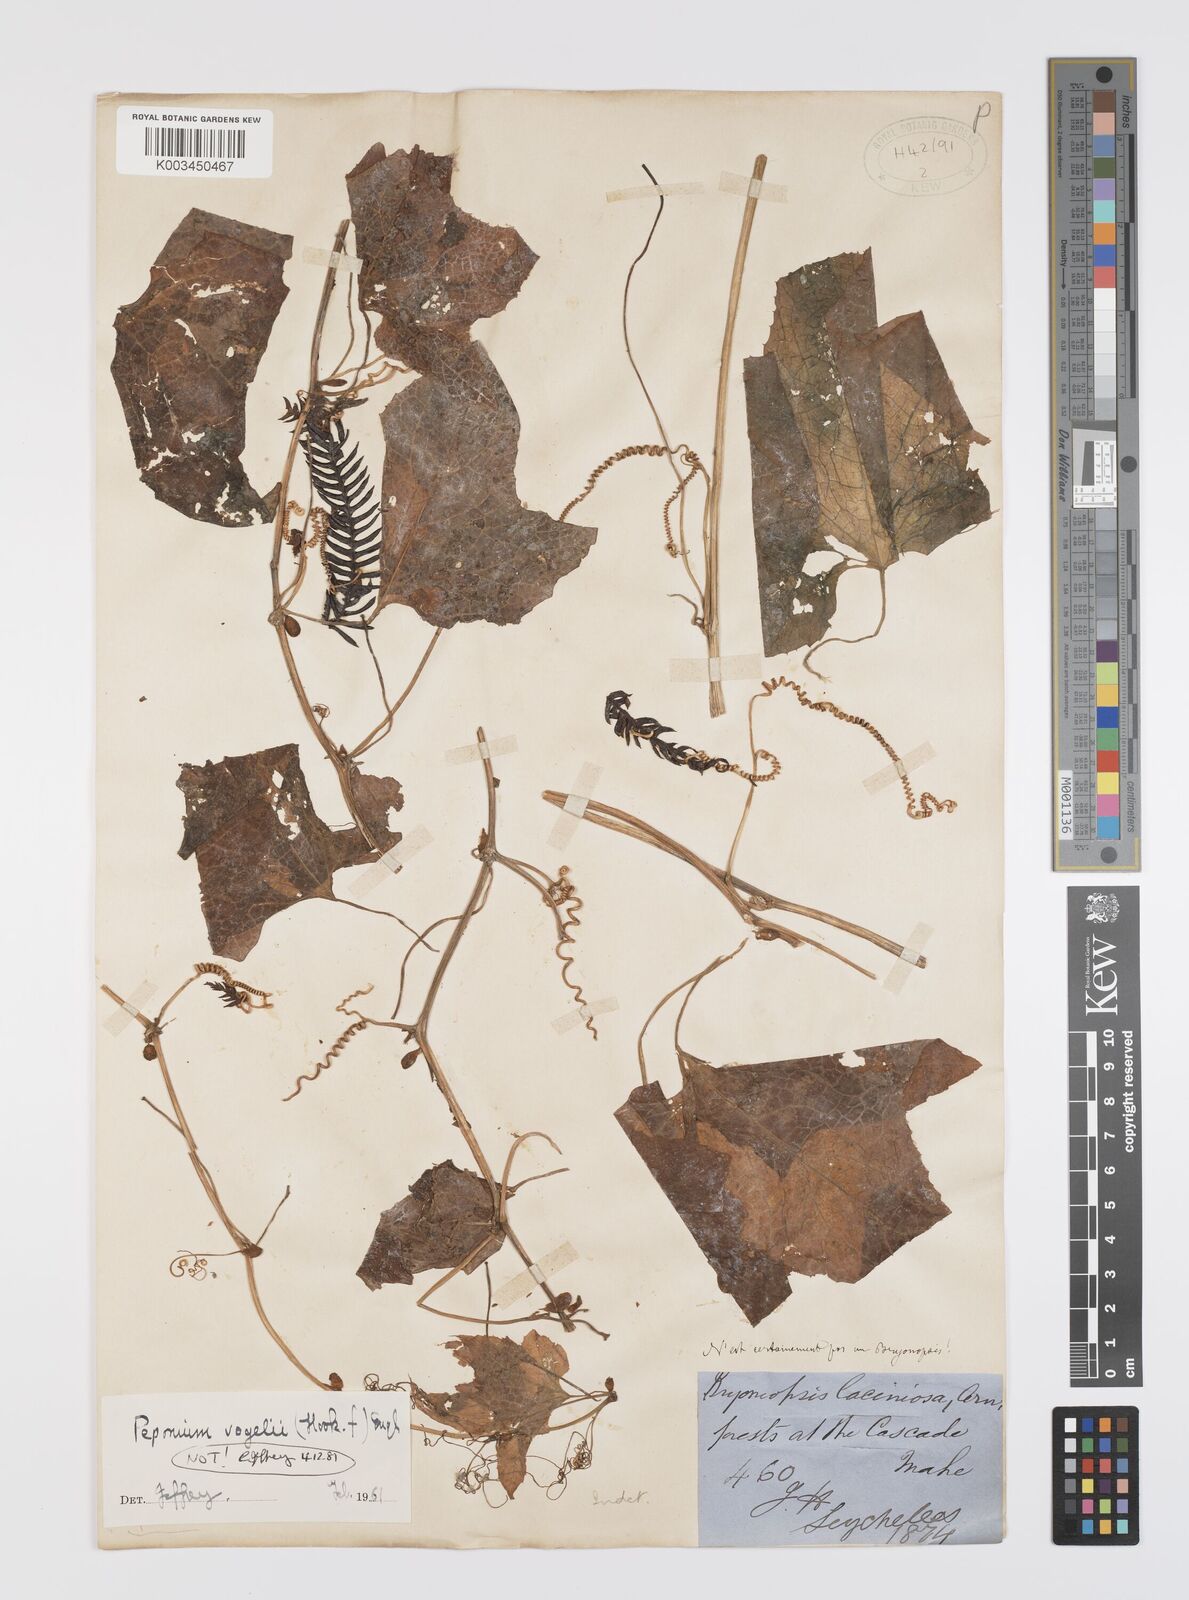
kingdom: Plantae
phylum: Tracheophyta
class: Magnoliopsida
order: Cucurbitales
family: Cucurbitaceae
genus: Peponium
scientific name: Peponium sublitorale
